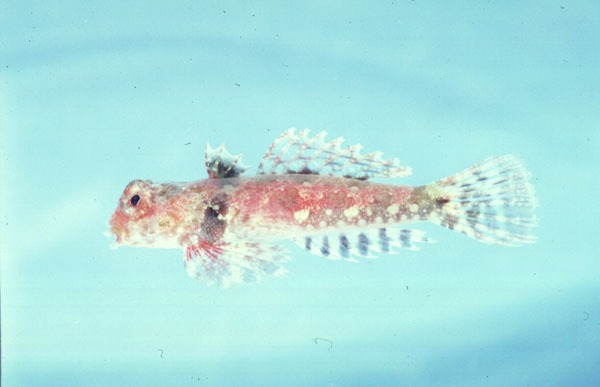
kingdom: Animalia
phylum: Chordata
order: Perciformes
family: Callionymidae
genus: Synchiropus
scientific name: Synchiropus morrisoni
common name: Morrison's dragonet
